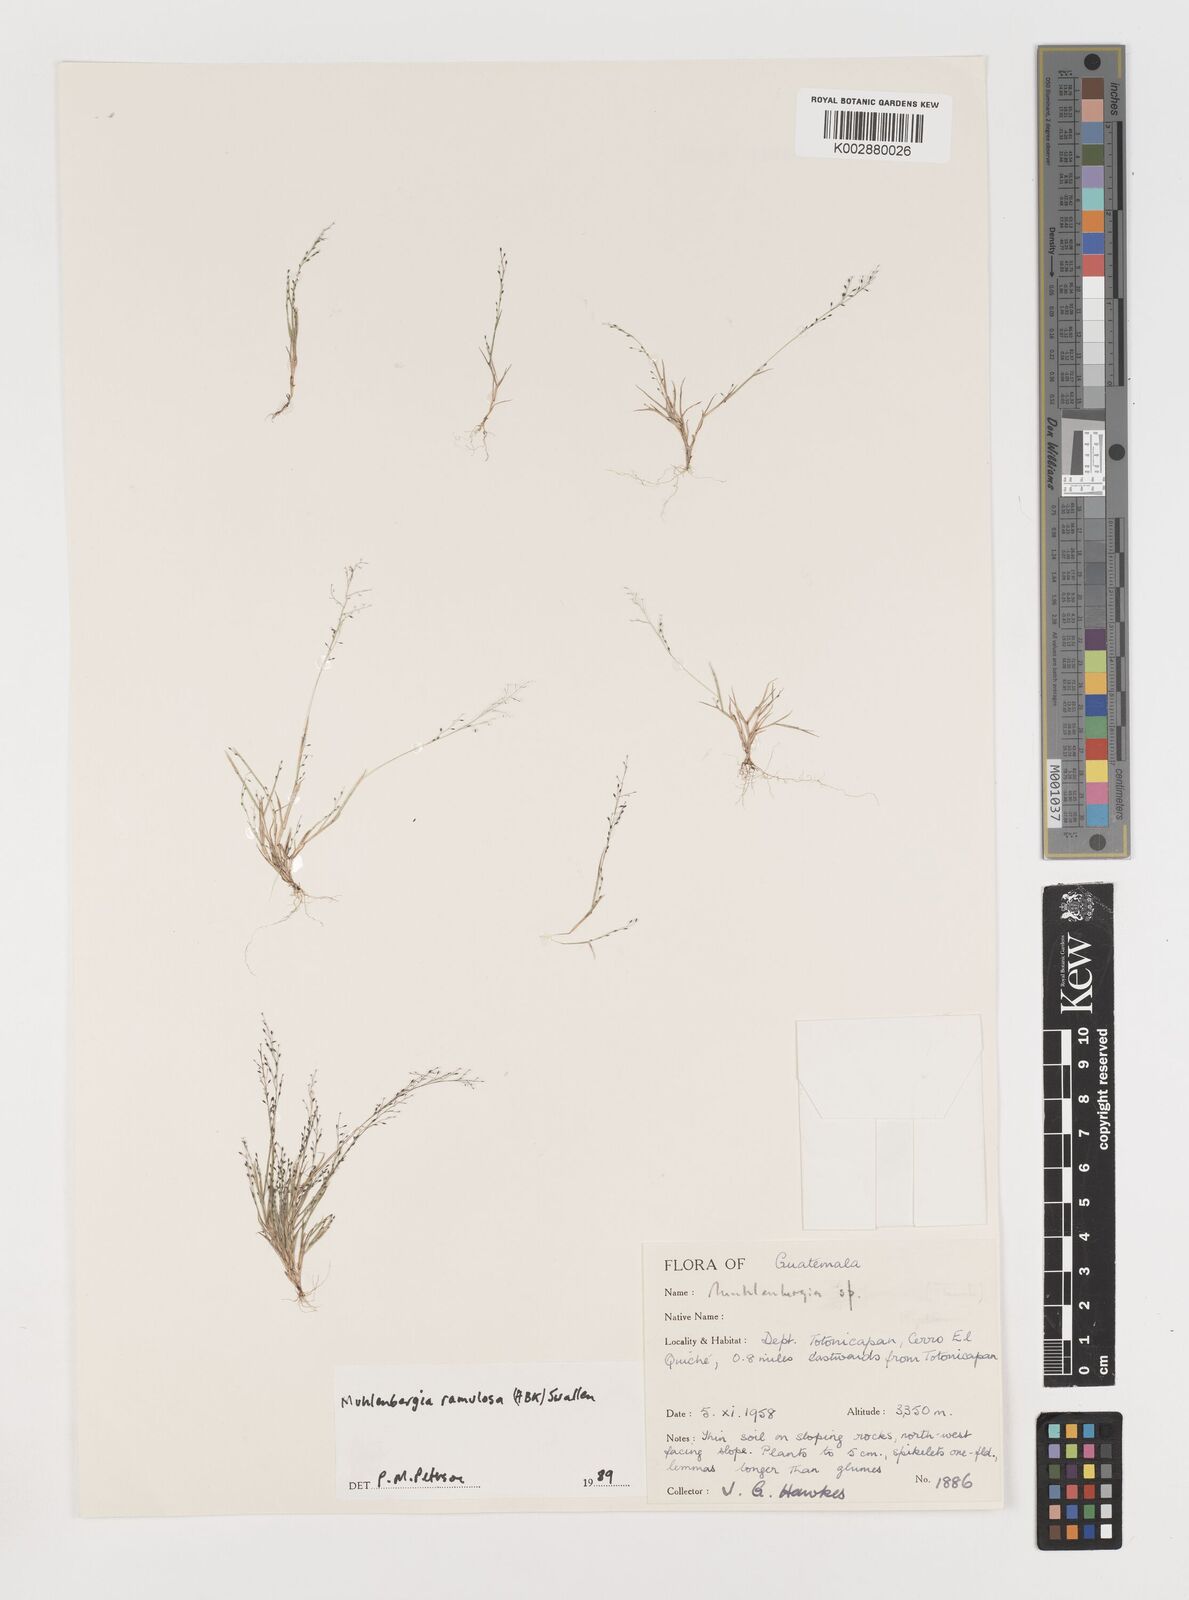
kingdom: Plantae
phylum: Tracheophyta
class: Liliopsida
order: Poales
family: Poaceae
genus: Muhlenbergia
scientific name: Muhlenbergia ramulosa
